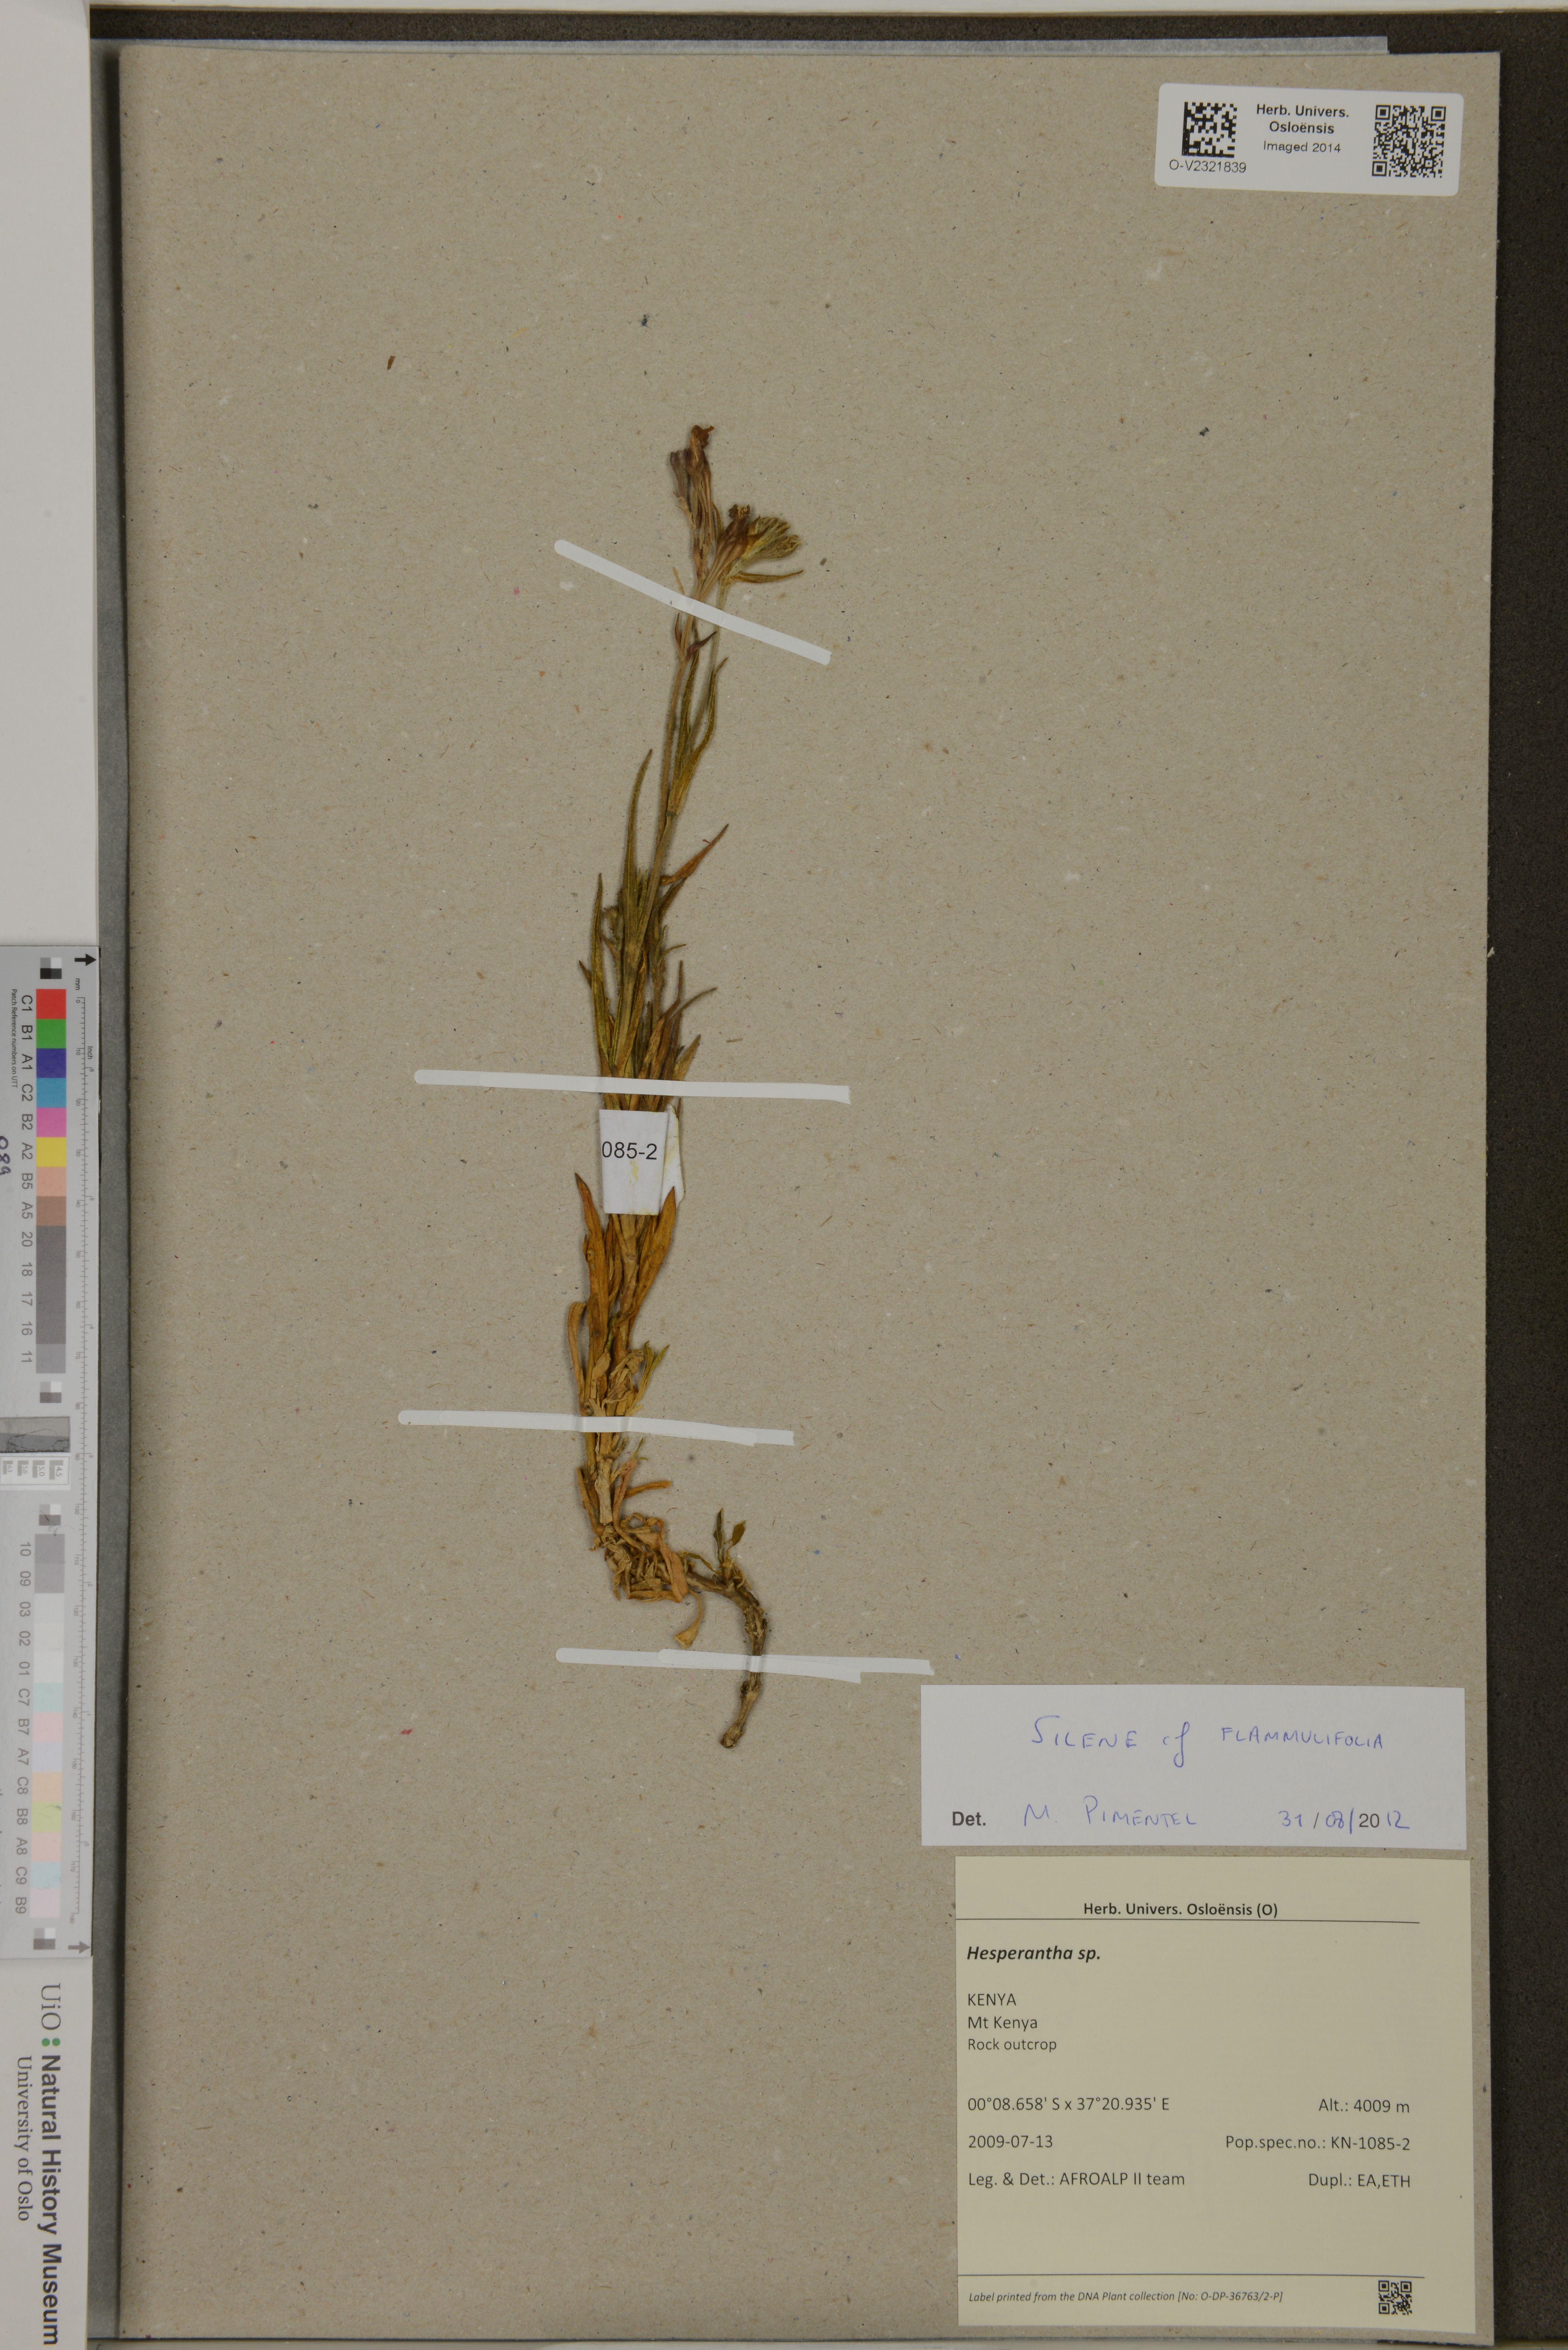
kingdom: Plantae
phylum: Tracheophyta
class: Liliopsida
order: Asparagales
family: Iridaceae
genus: Hesperantha
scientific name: Hesperantha
